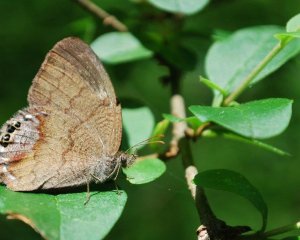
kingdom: Animalia
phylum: Arthropoda
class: Insecta
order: Lepidoptera
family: Nymphalidae
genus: Euptychia
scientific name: Euptychia cornelius
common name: Gemmed Satyr
